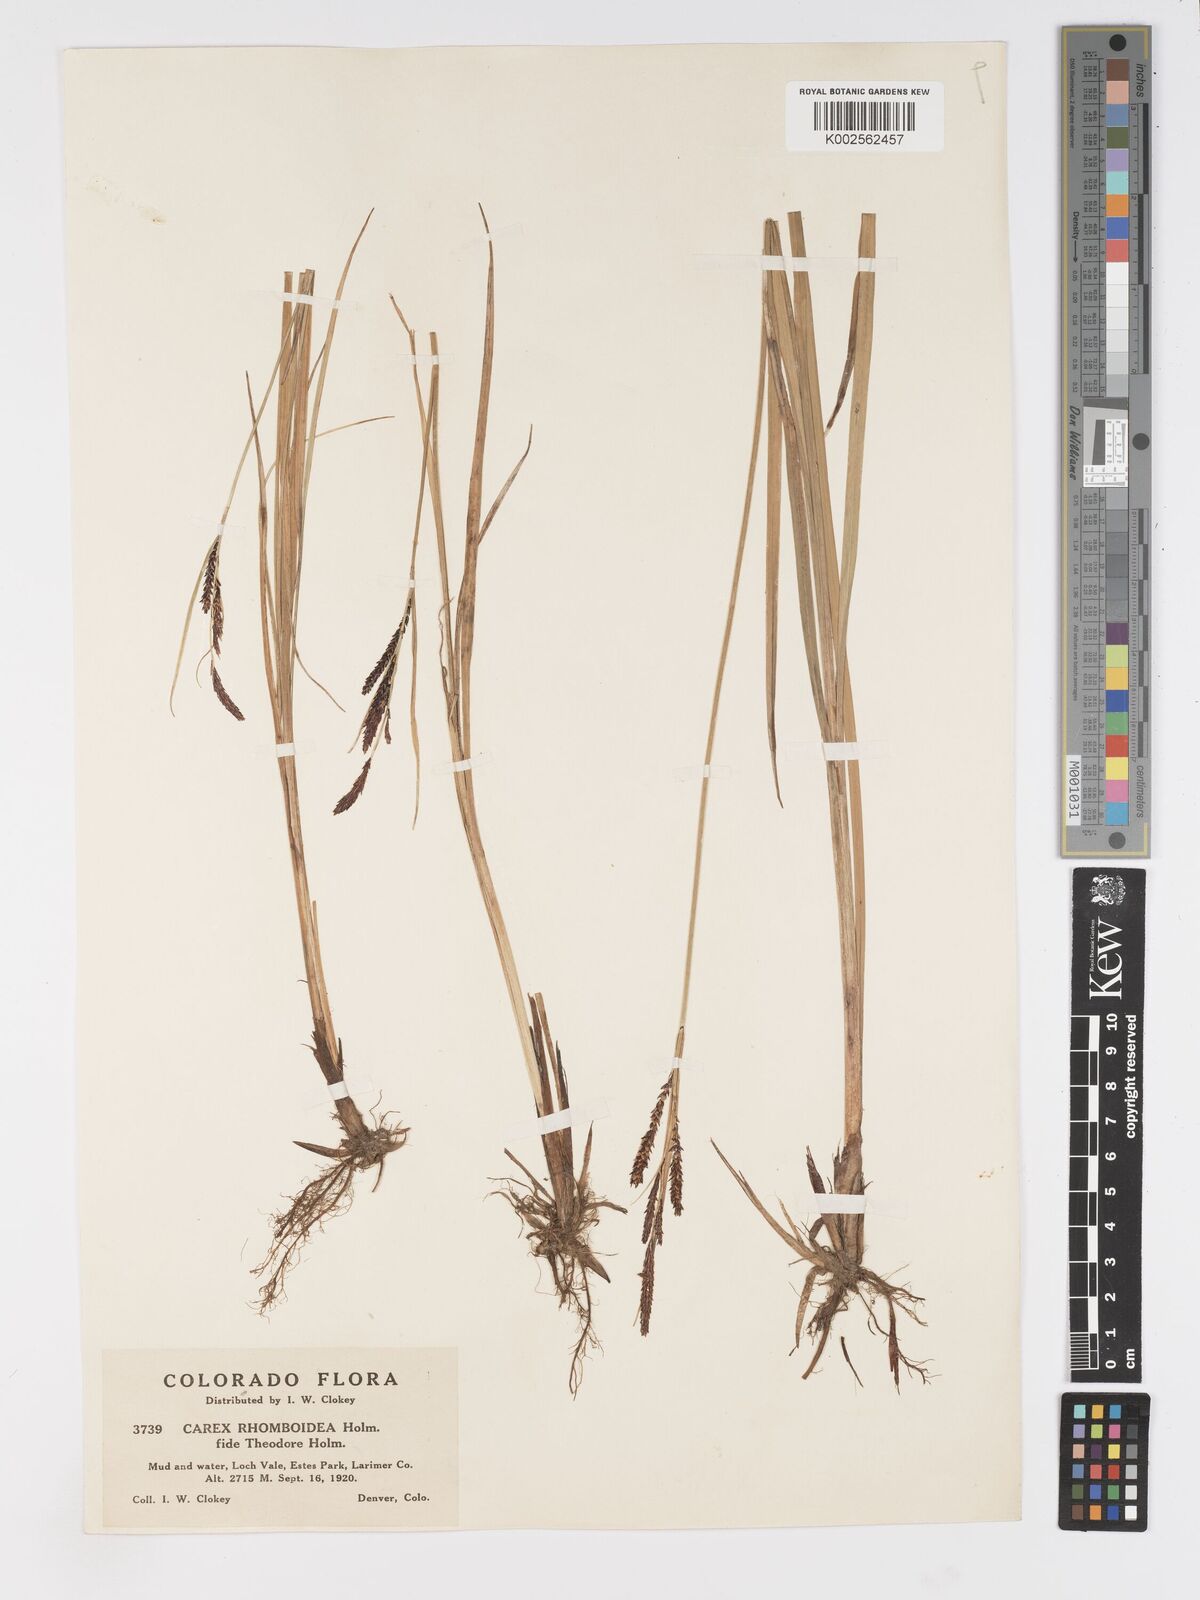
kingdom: Plantae
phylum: Tracheophyta
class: Liliopsida
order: Poales
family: Cyperaceae
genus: Carex
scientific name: Carex
